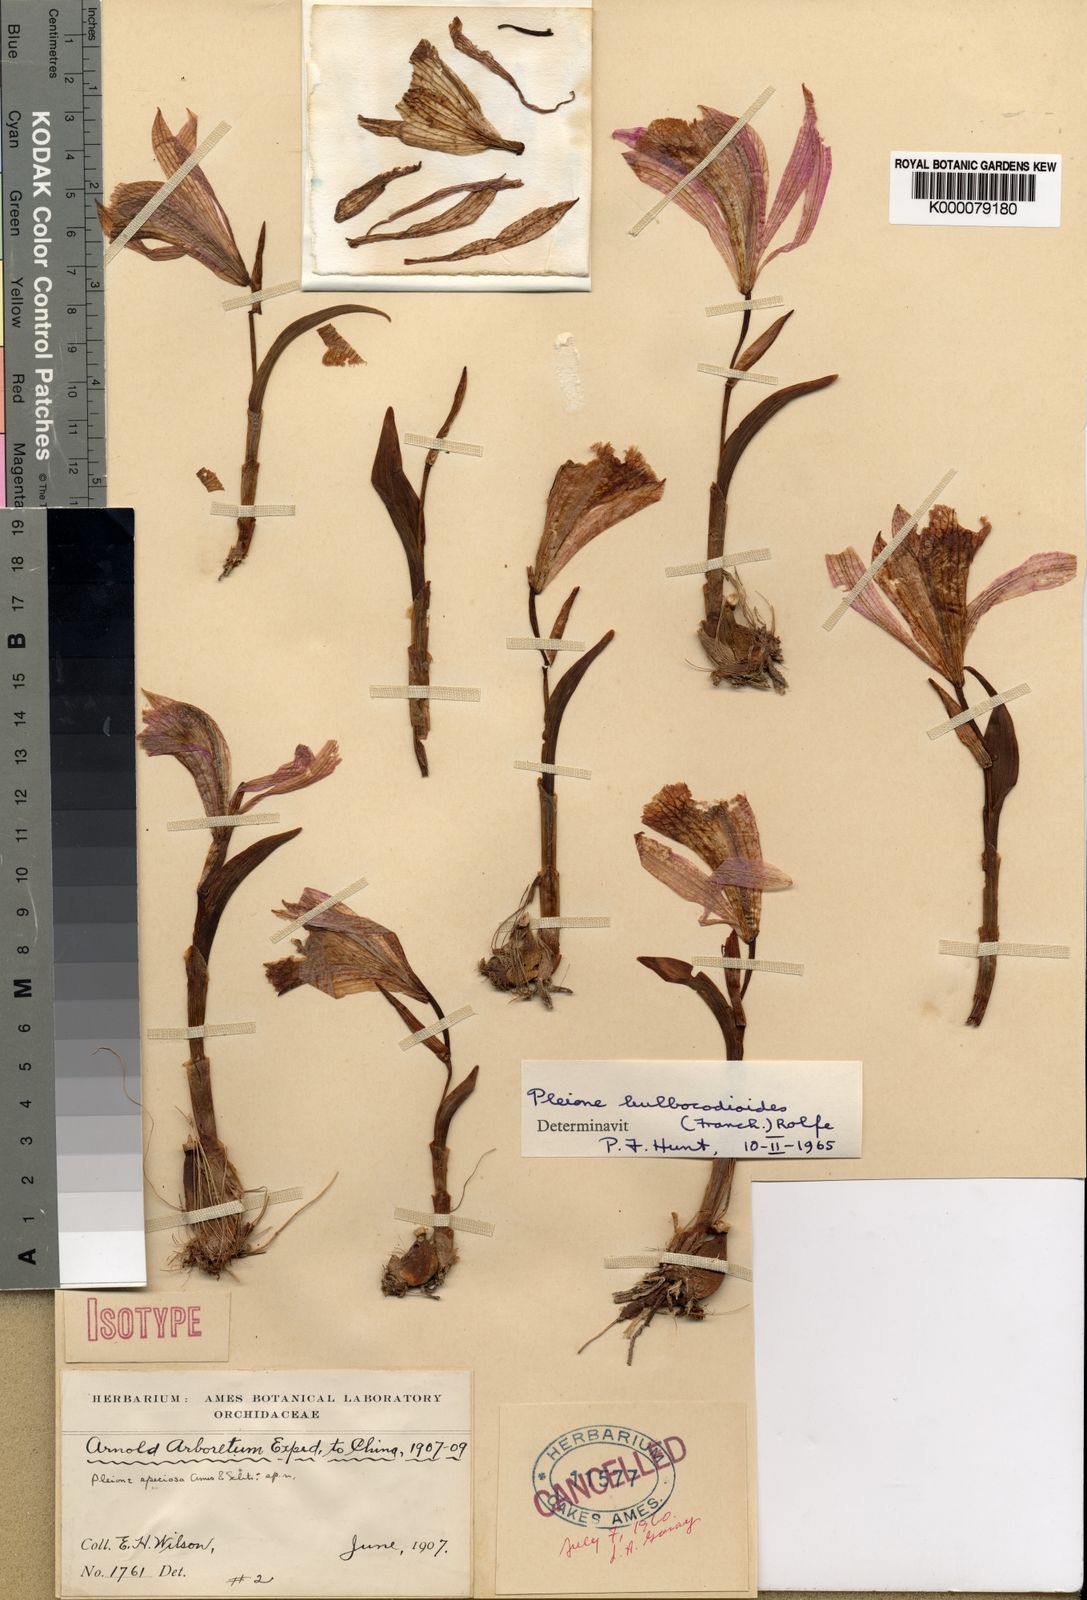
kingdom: Plantae
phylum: Tracheophyta
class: Liliopsida
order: Asparagales
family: Orchidaceae
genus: Pleione
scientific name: Pleione pleionoides
